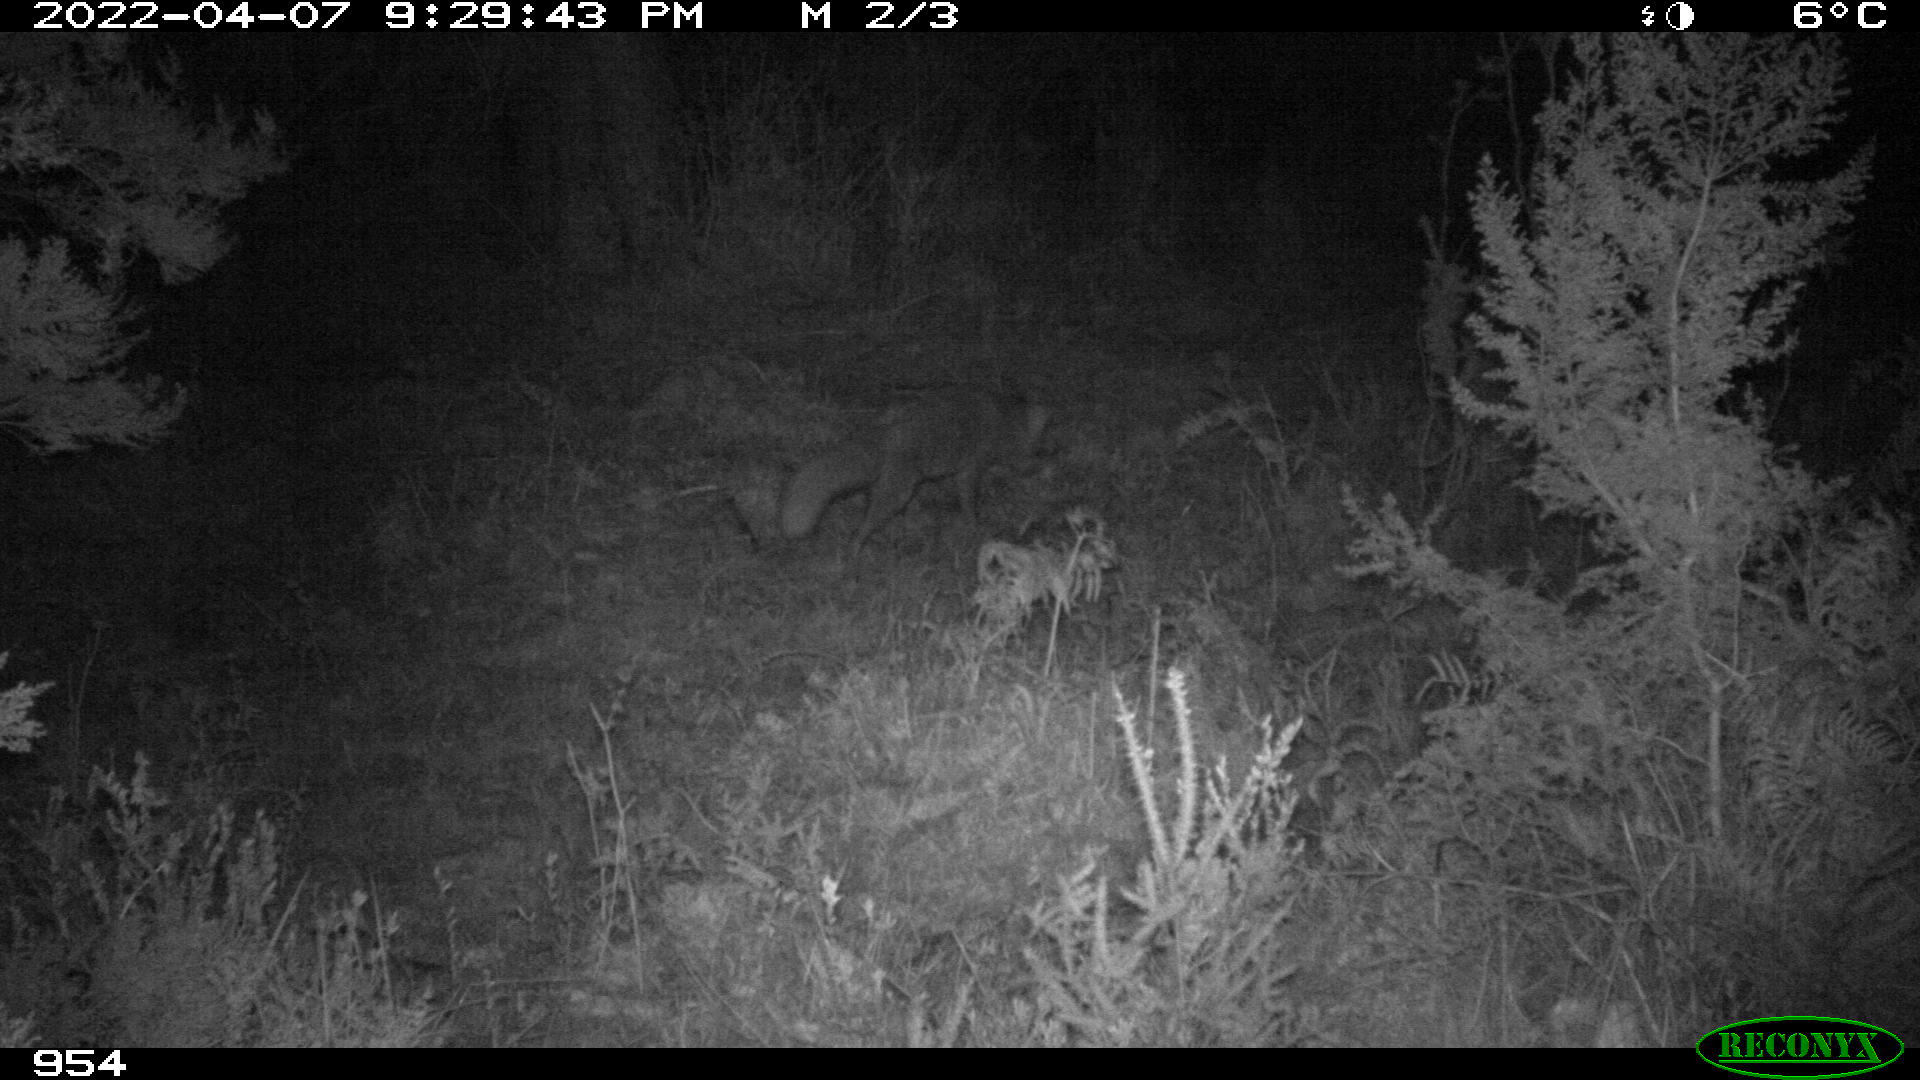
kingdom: Animalia
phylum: Chordata
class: Mammalia
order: Carnivora
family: Canidae
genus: Vulpes
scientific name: Vulpes vulpes
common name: Red fox
